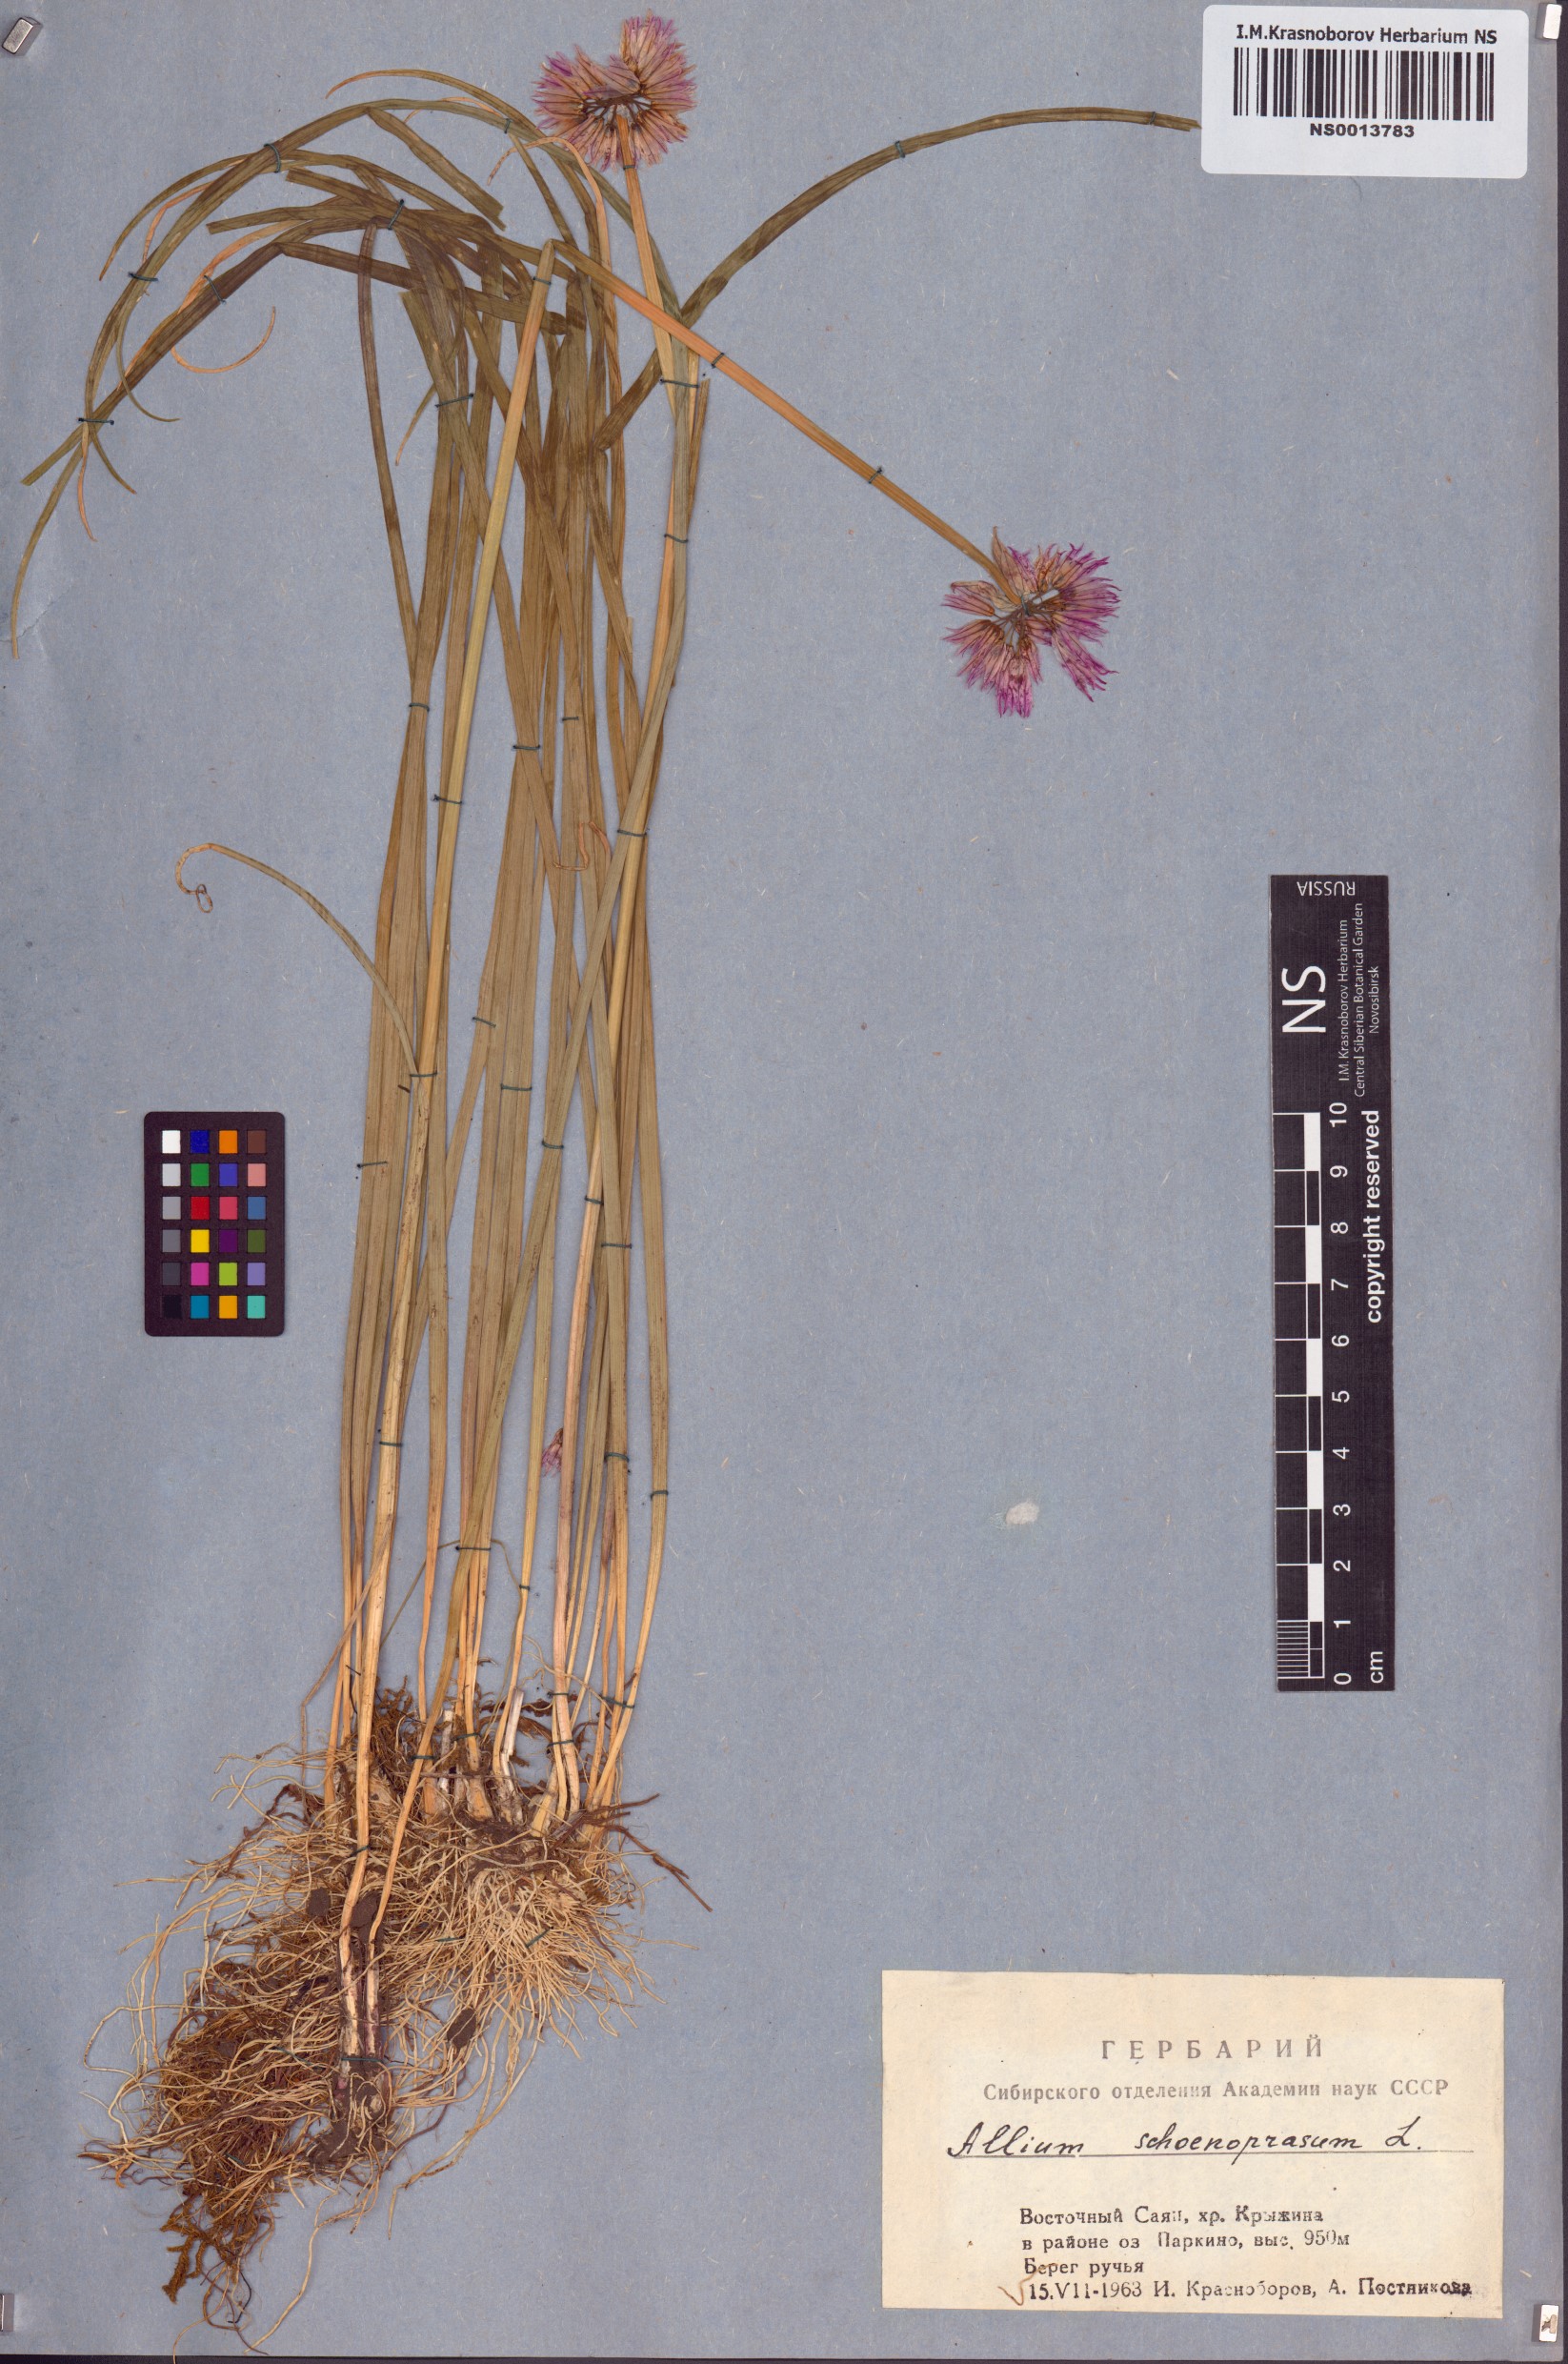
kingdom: Plantae
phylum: Tracheophyta
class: Liliopsida
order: Asparagales
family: Amaryllidaceae
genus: Allium
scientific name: Allium schoenoprasum
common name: Chives
